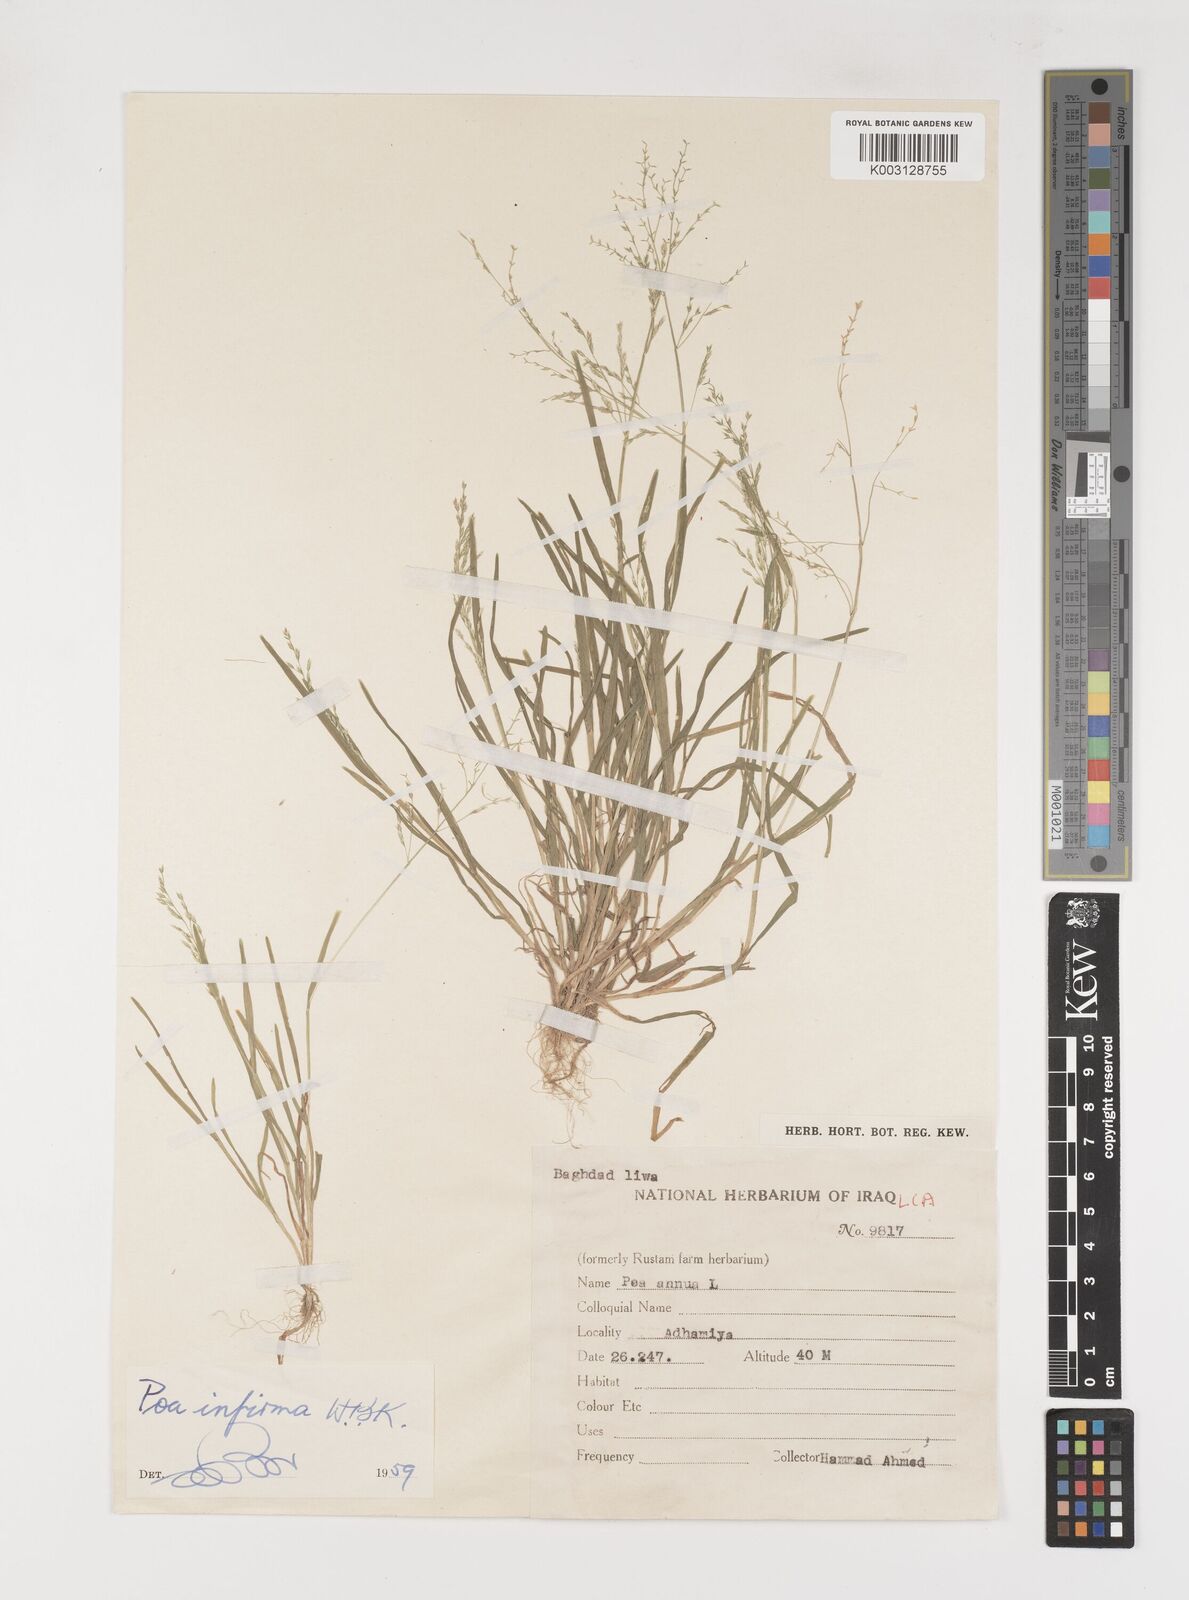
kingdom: Plantae
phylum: Tracheophyta
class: Liliopsida
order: Poales
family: Poaceae
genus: Poa
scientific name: Poa infirma
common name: Weak bluegrass
